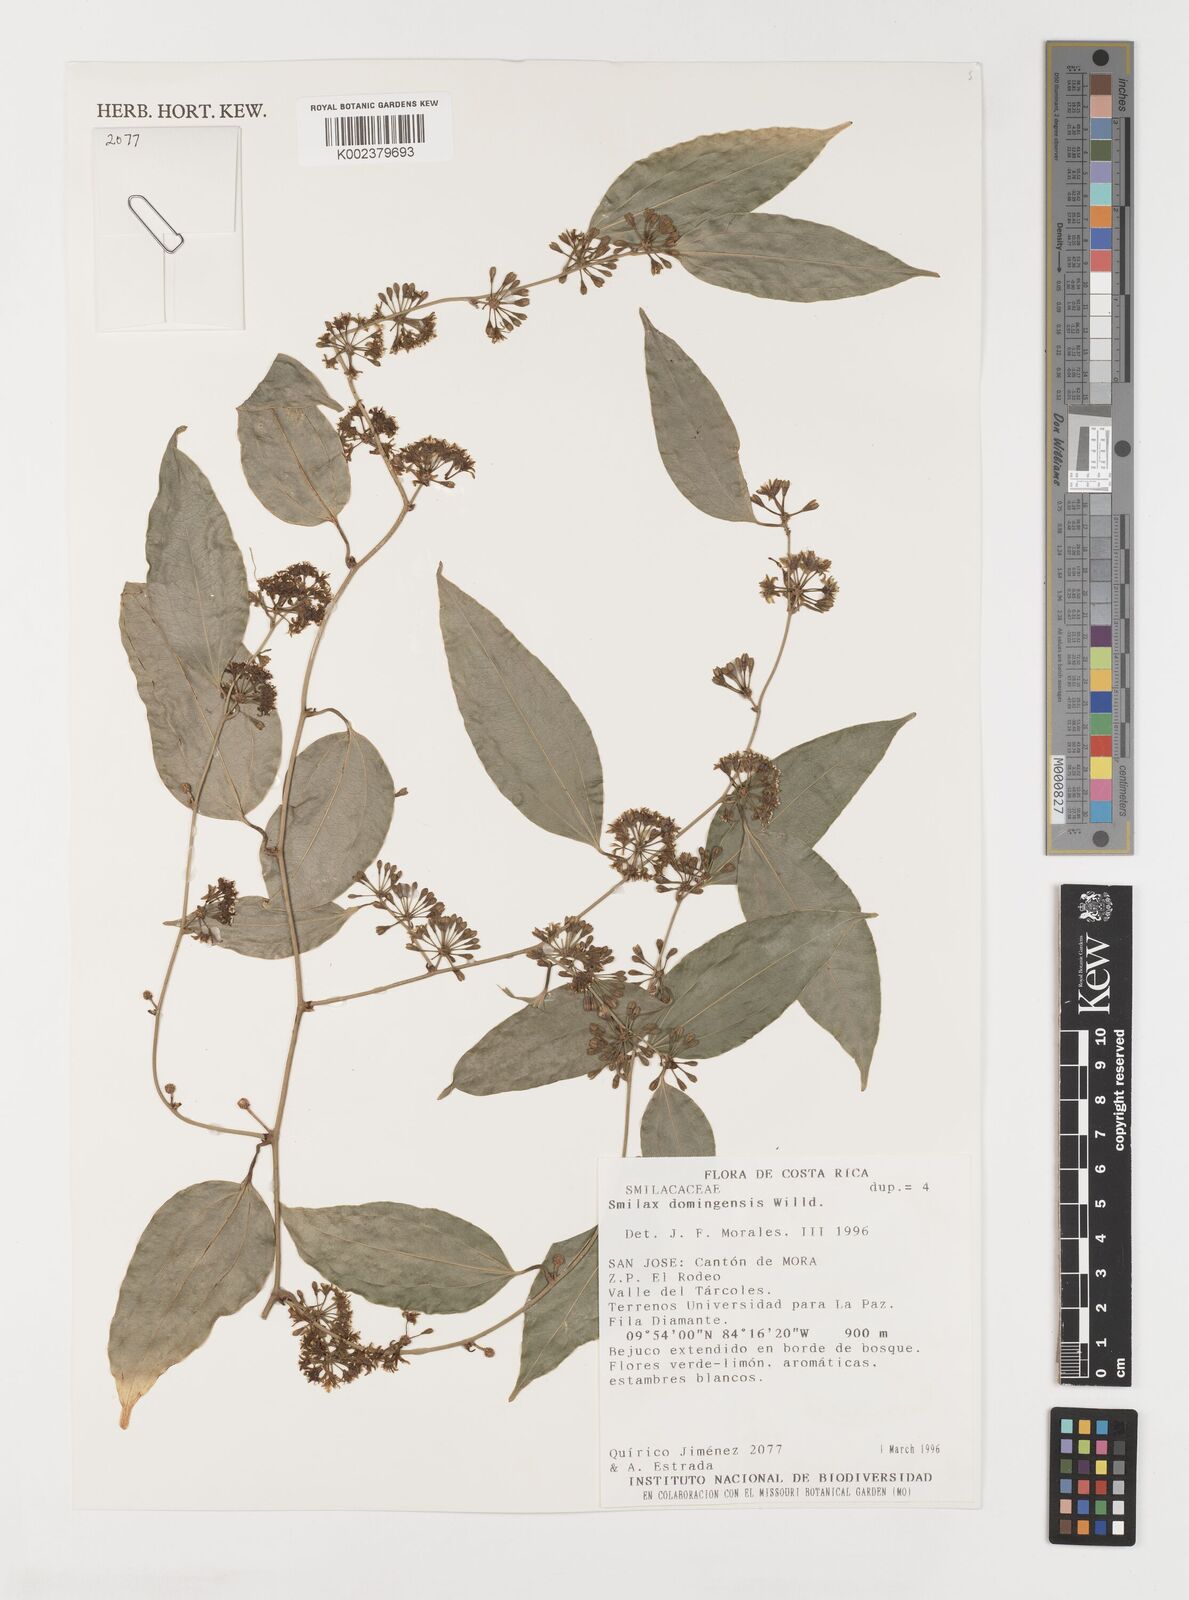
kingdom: Plantae
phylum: Tracheophyta
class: Liliopsida
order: Liliales
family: Smilacaceae
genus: Smilax
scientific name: Smilax domingensis
